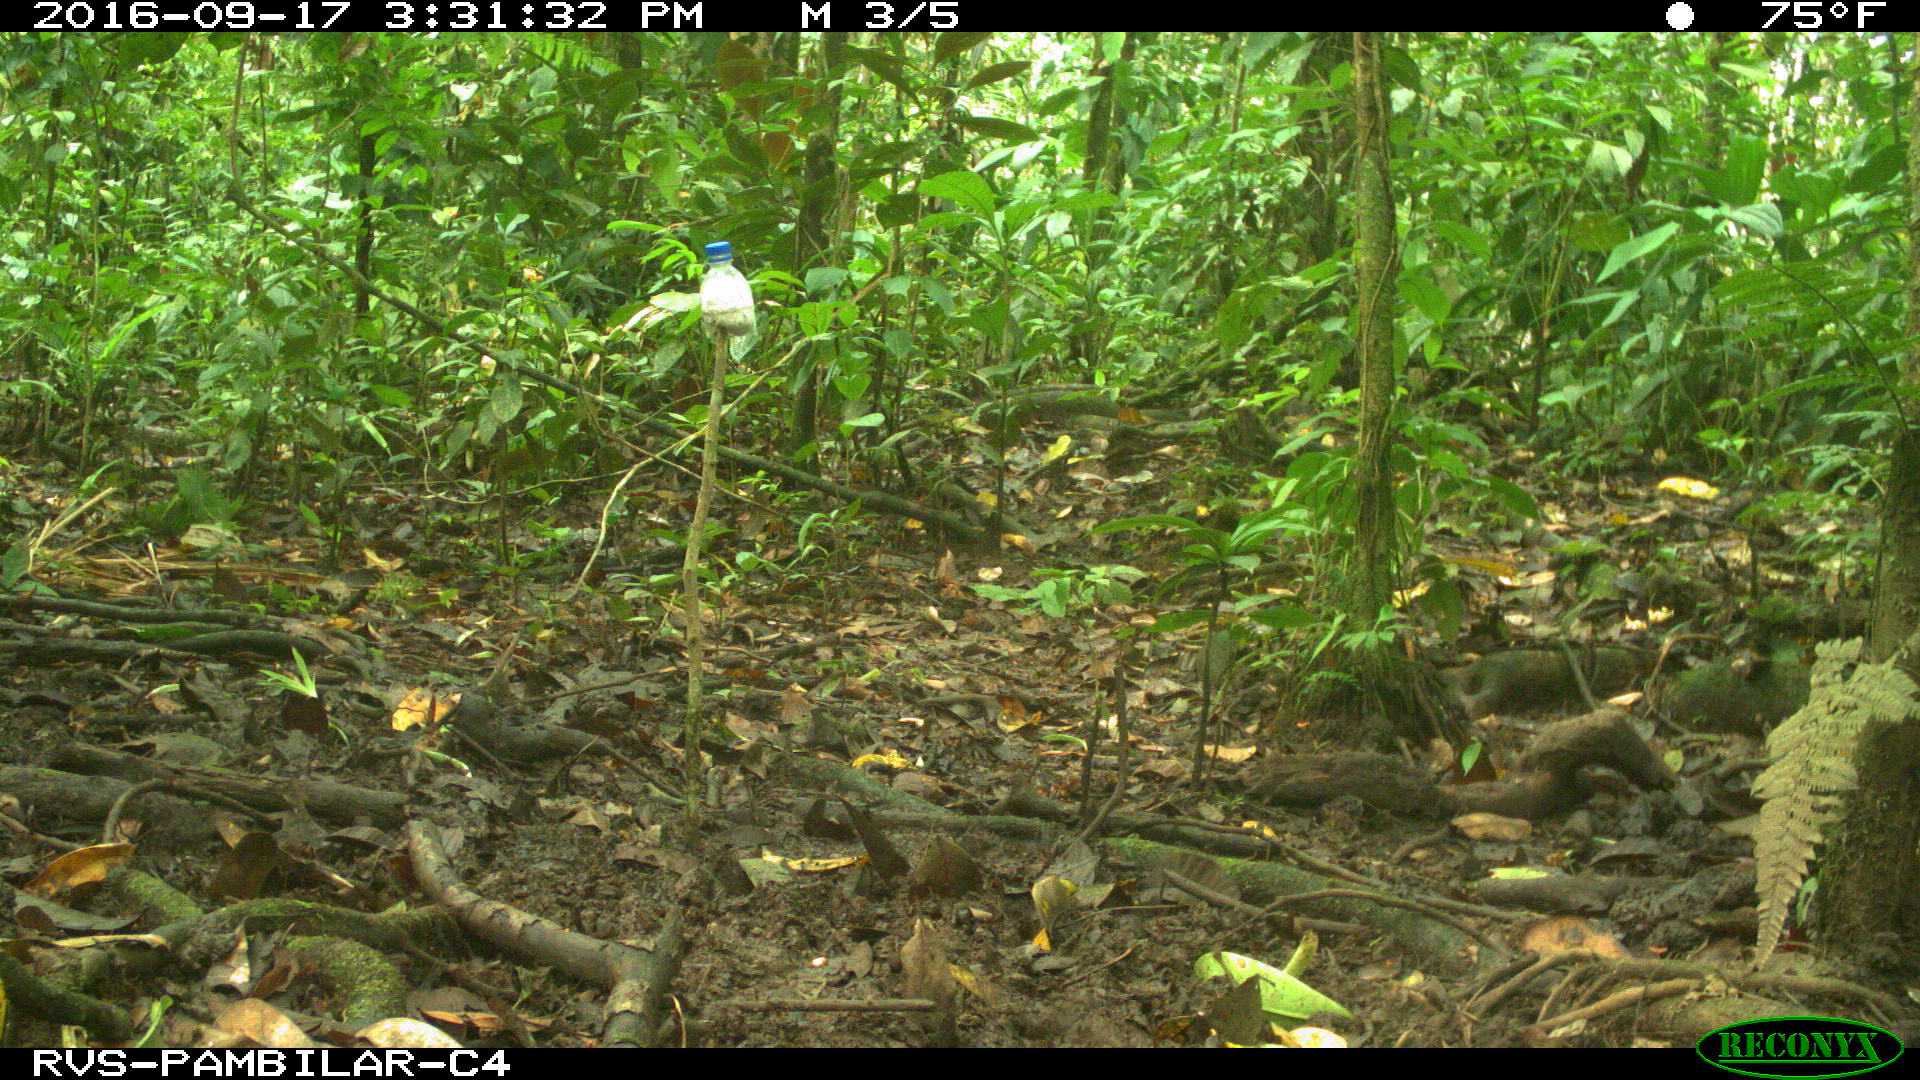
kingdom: Animalia
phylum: Chordata
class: Mammalia
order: Rodentia
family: Dasyproctidae
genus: Dasyprocta
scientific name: Dasyprocta punctata
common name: Central american agouti
